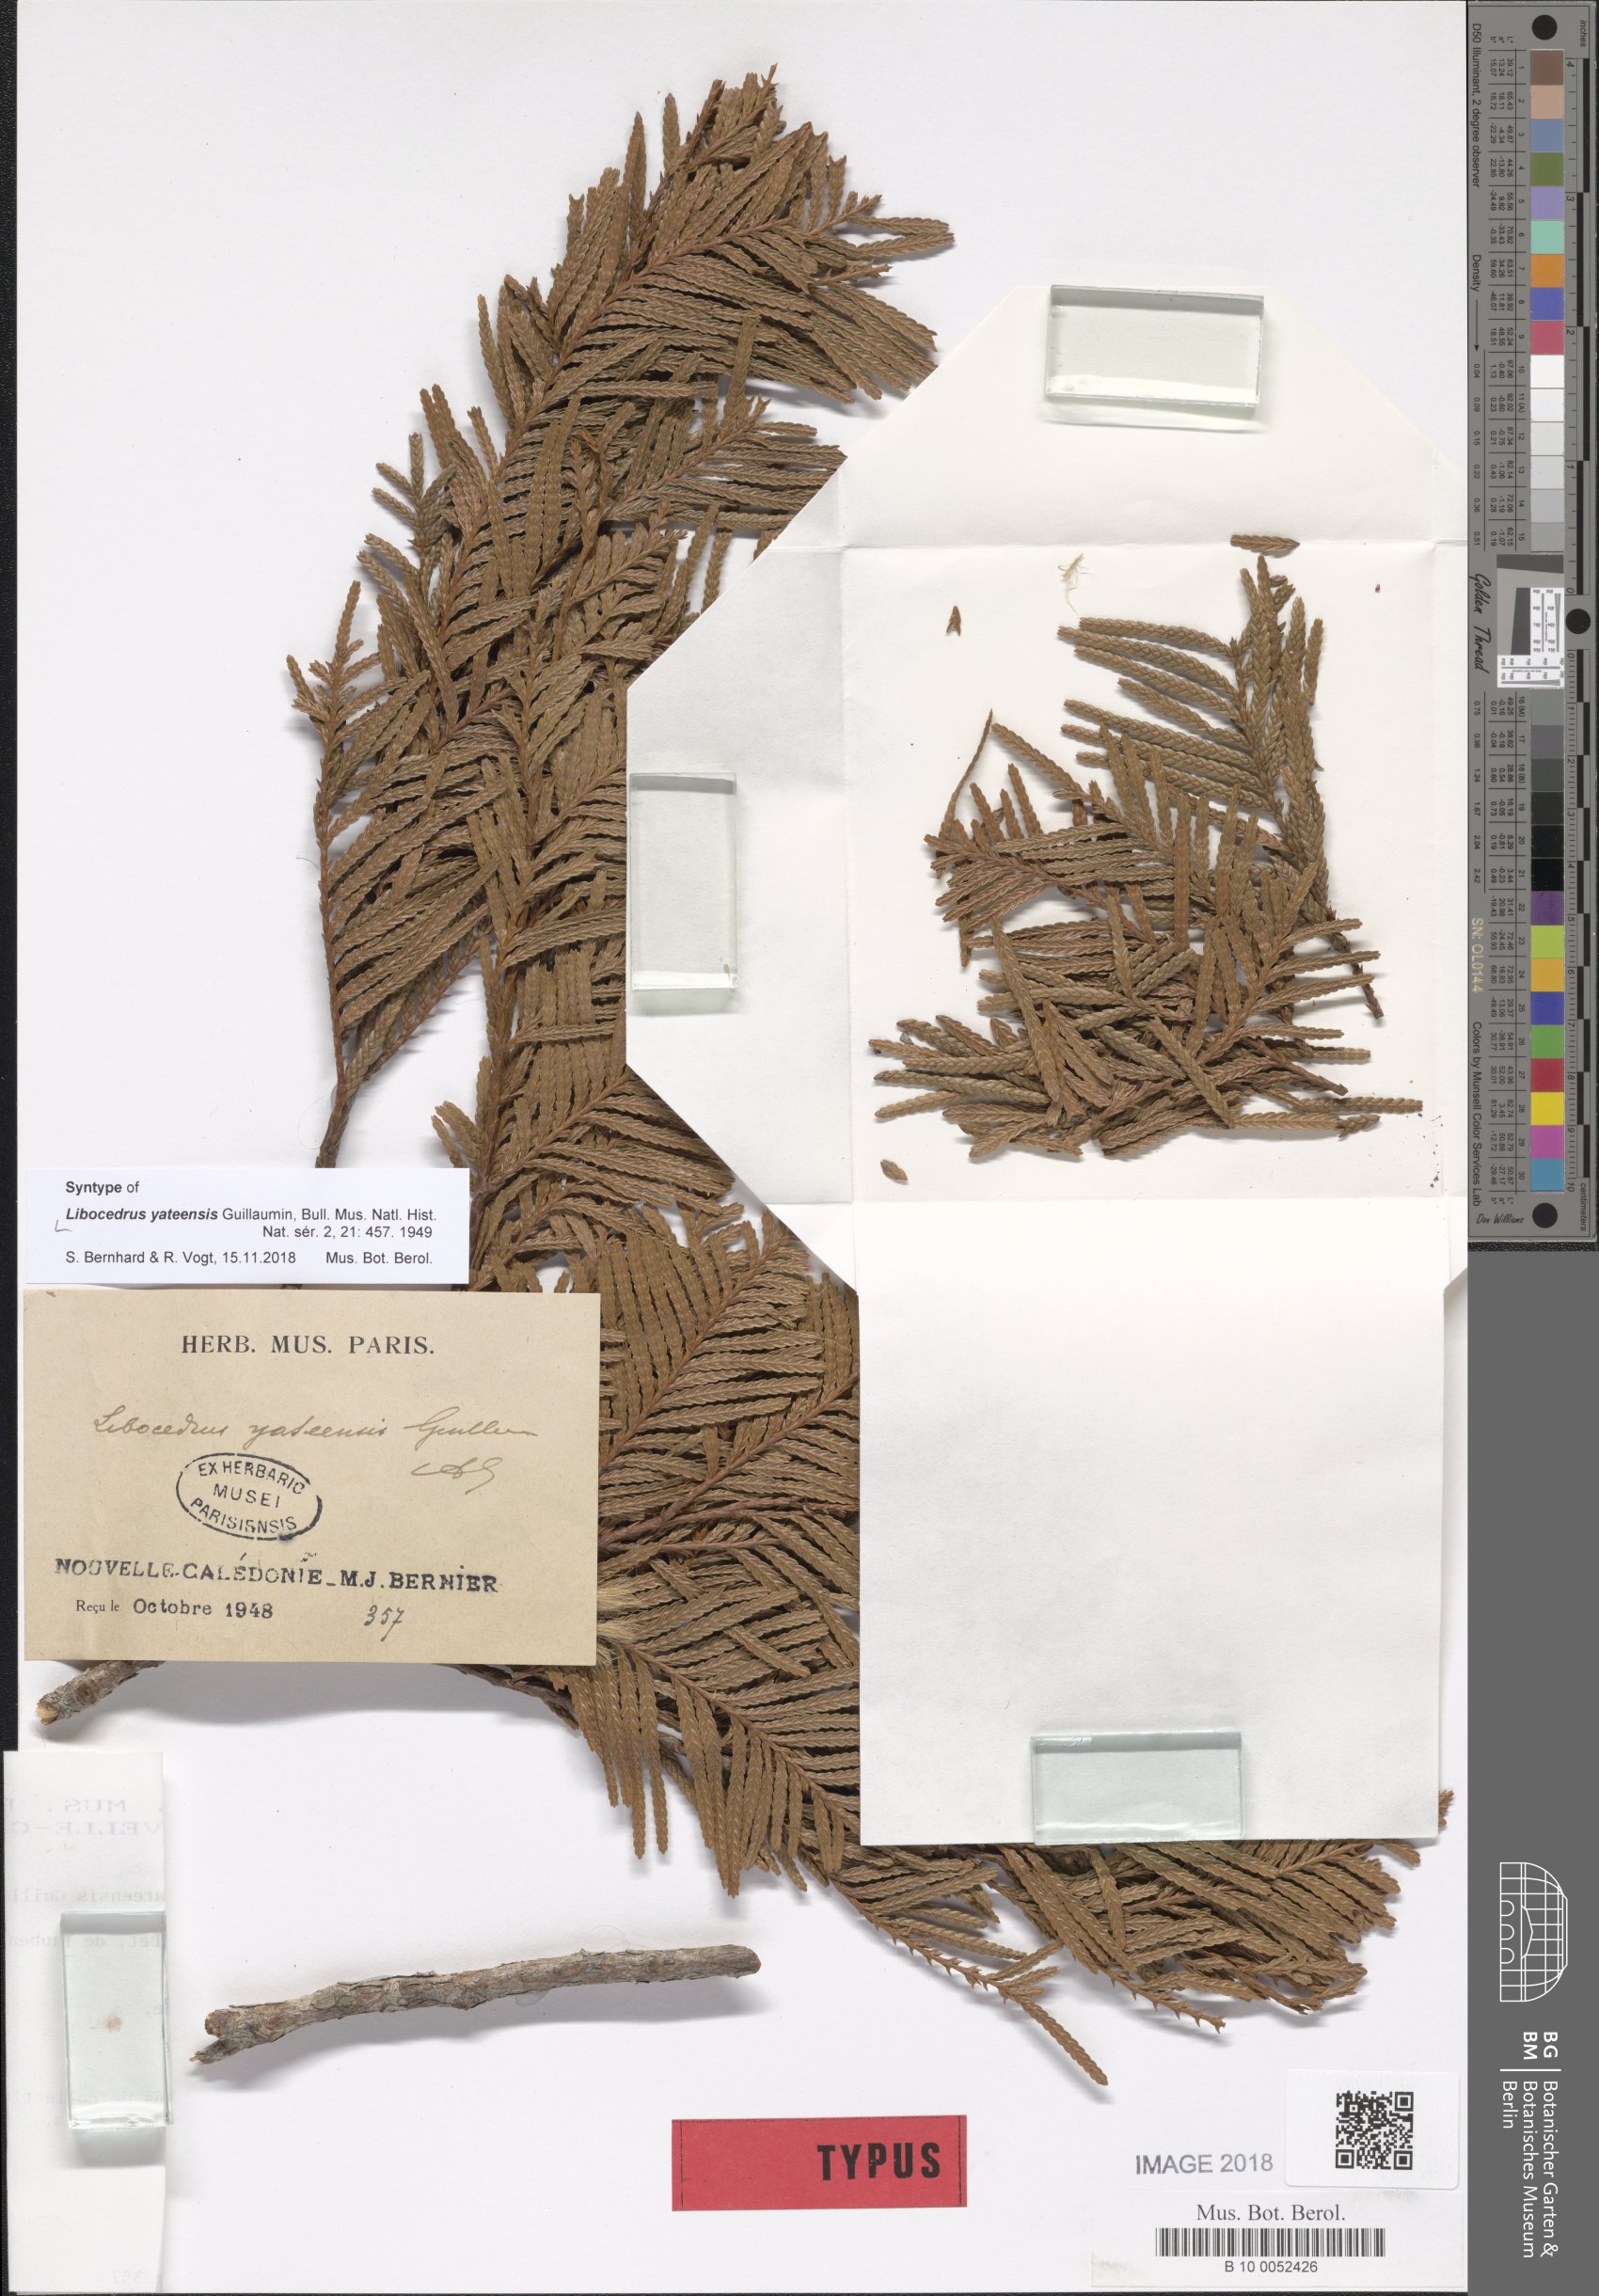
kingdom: Plantae
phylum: Tracheophyta
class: Pinopsida
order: Pinales
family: Cupressaceae
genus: Libocedrus
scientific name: Libocedrus yateensis
